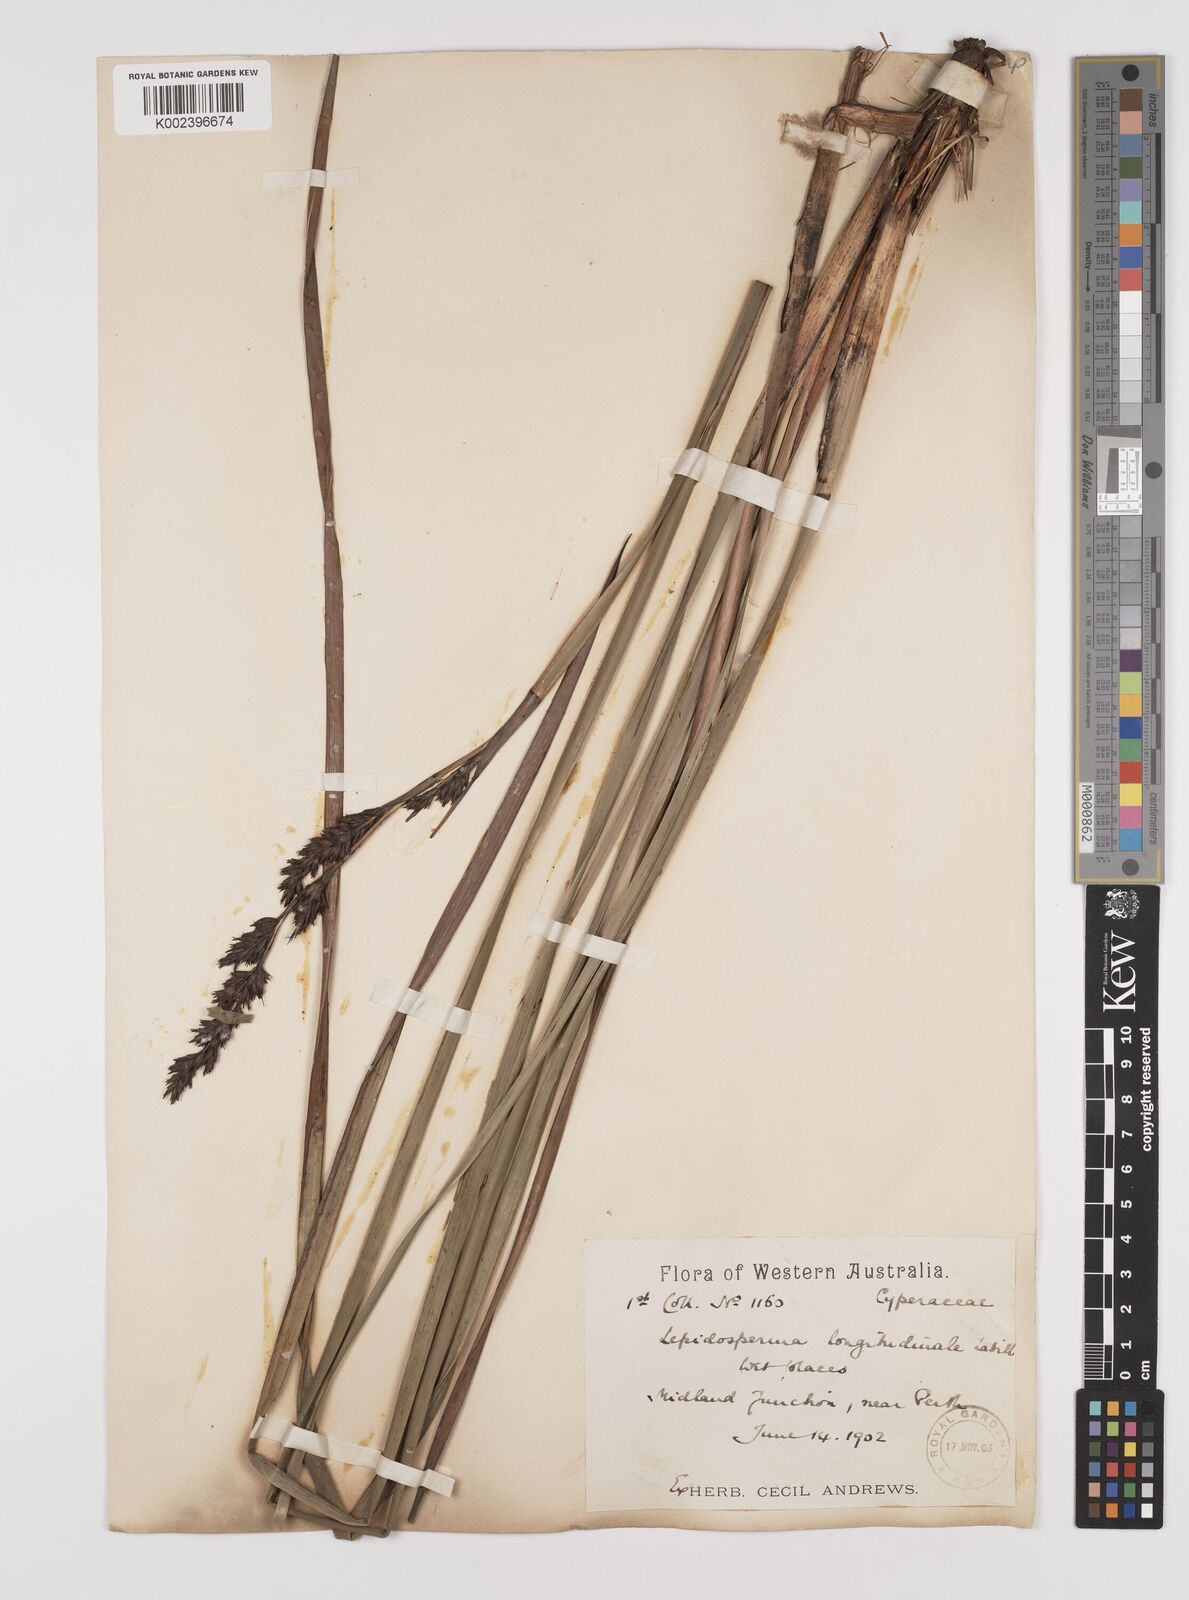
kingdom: Plantae
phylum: Tracheophyta
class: Liliopsida
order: Poales
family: Cyperaceae
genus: Lepidosperma
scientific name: Lepidosperma longitudinale
